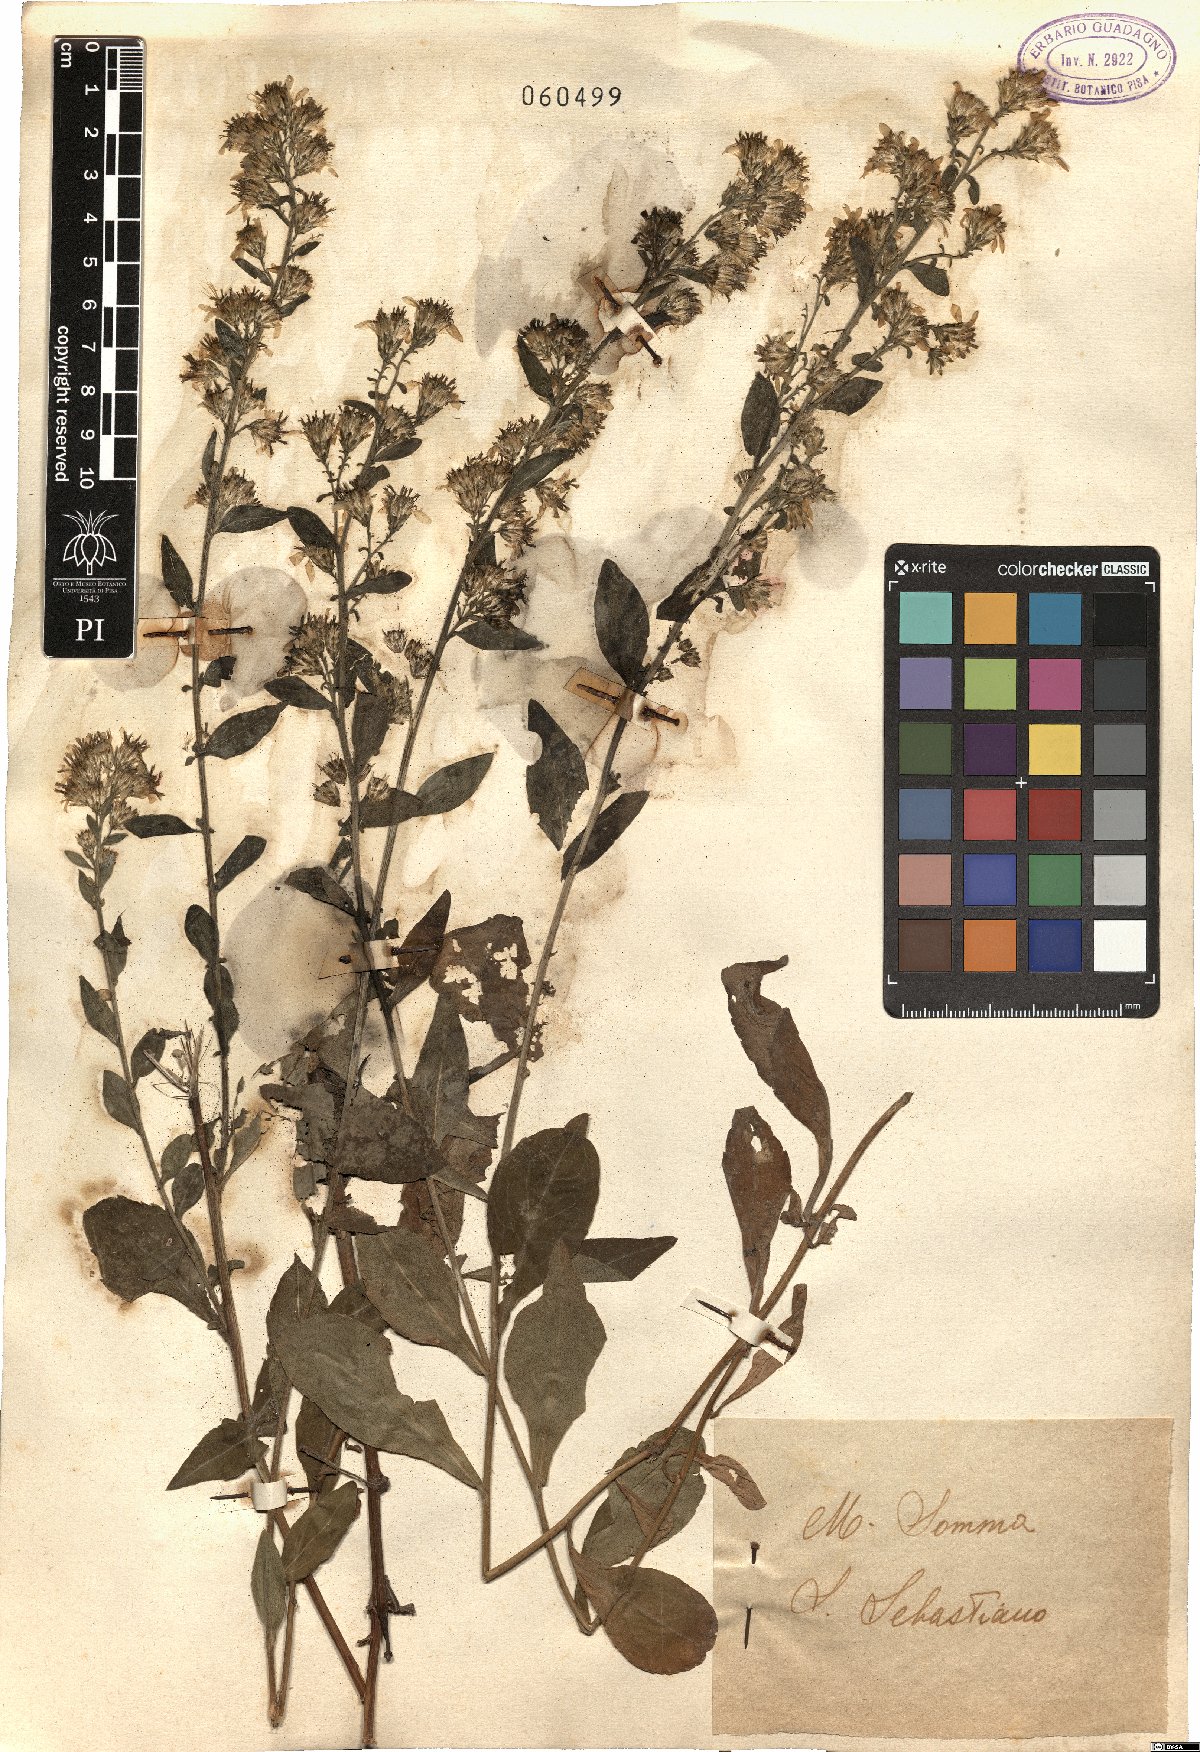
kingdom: Plantae
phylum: Tracheophyta
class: Magnoliopsida
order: Asterales
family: Asteraceae
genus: Solidago
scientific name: Solidago virgaurea
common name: Goldenrod
